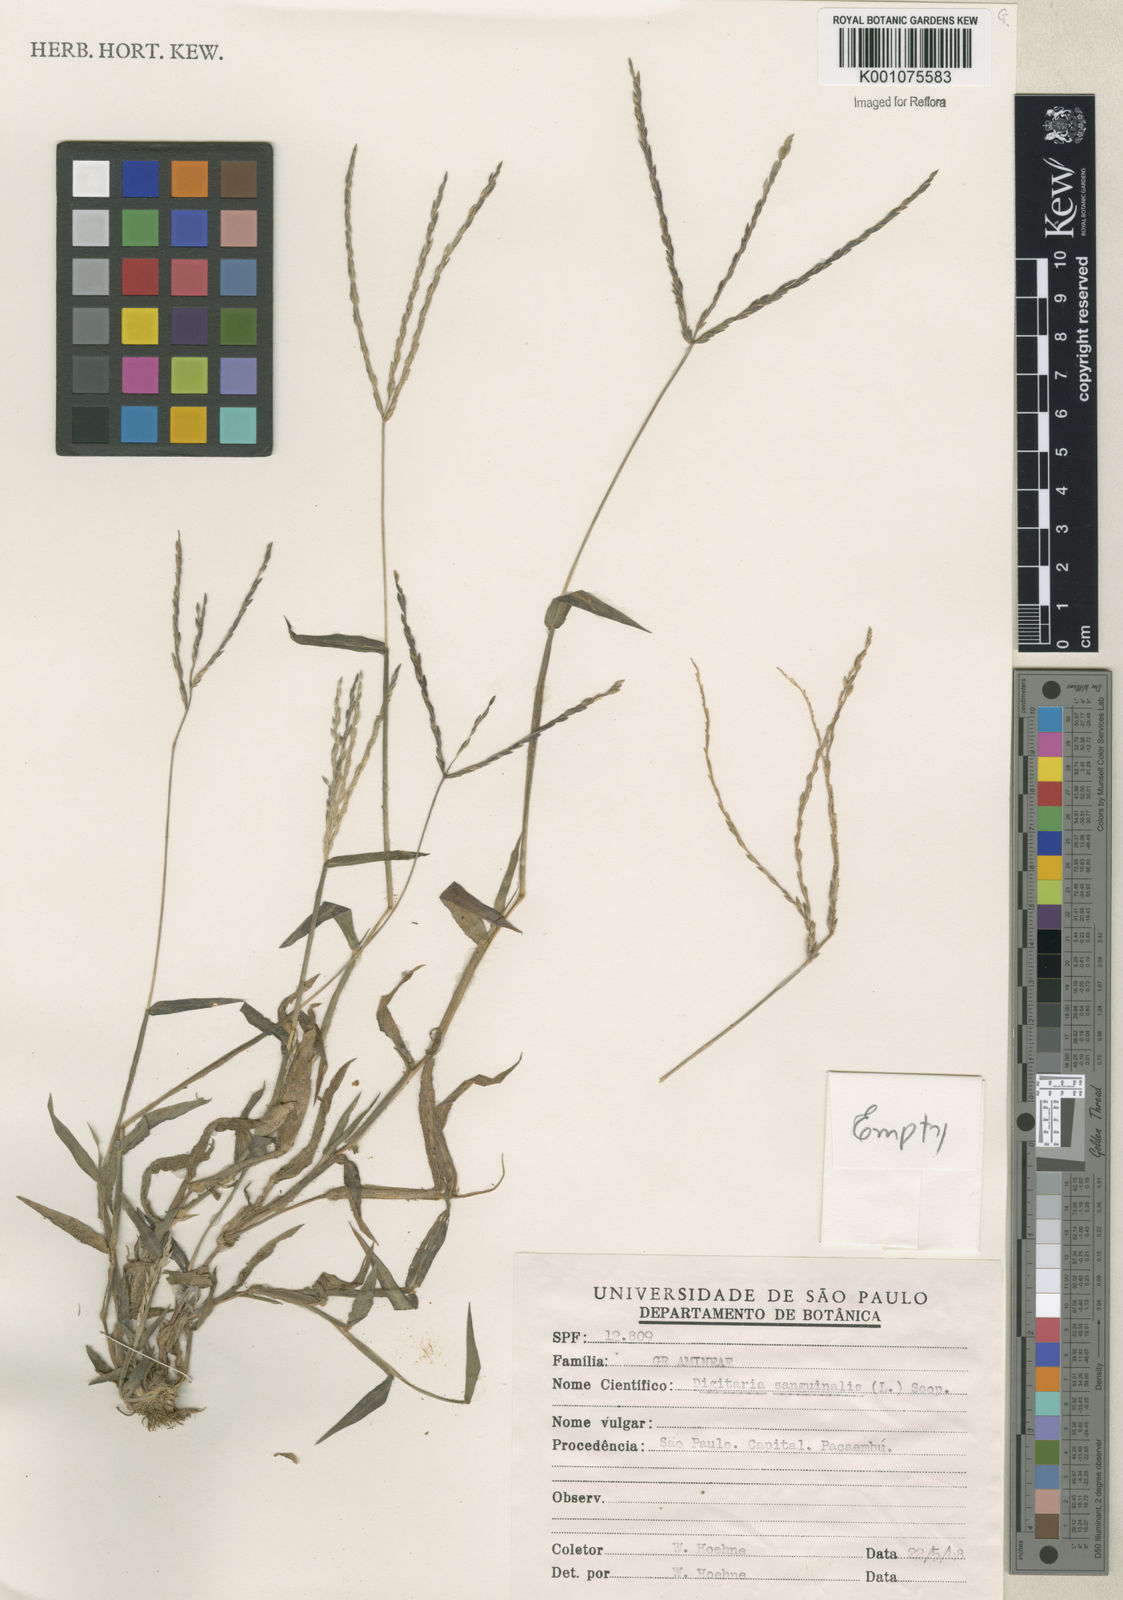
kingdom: Plantae
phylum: Tracheophyta
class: Liliopsida
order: Poales
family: Poaceae
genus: Digitaria
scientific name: Digitaria ciliaris
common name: Tropical finger-grass
